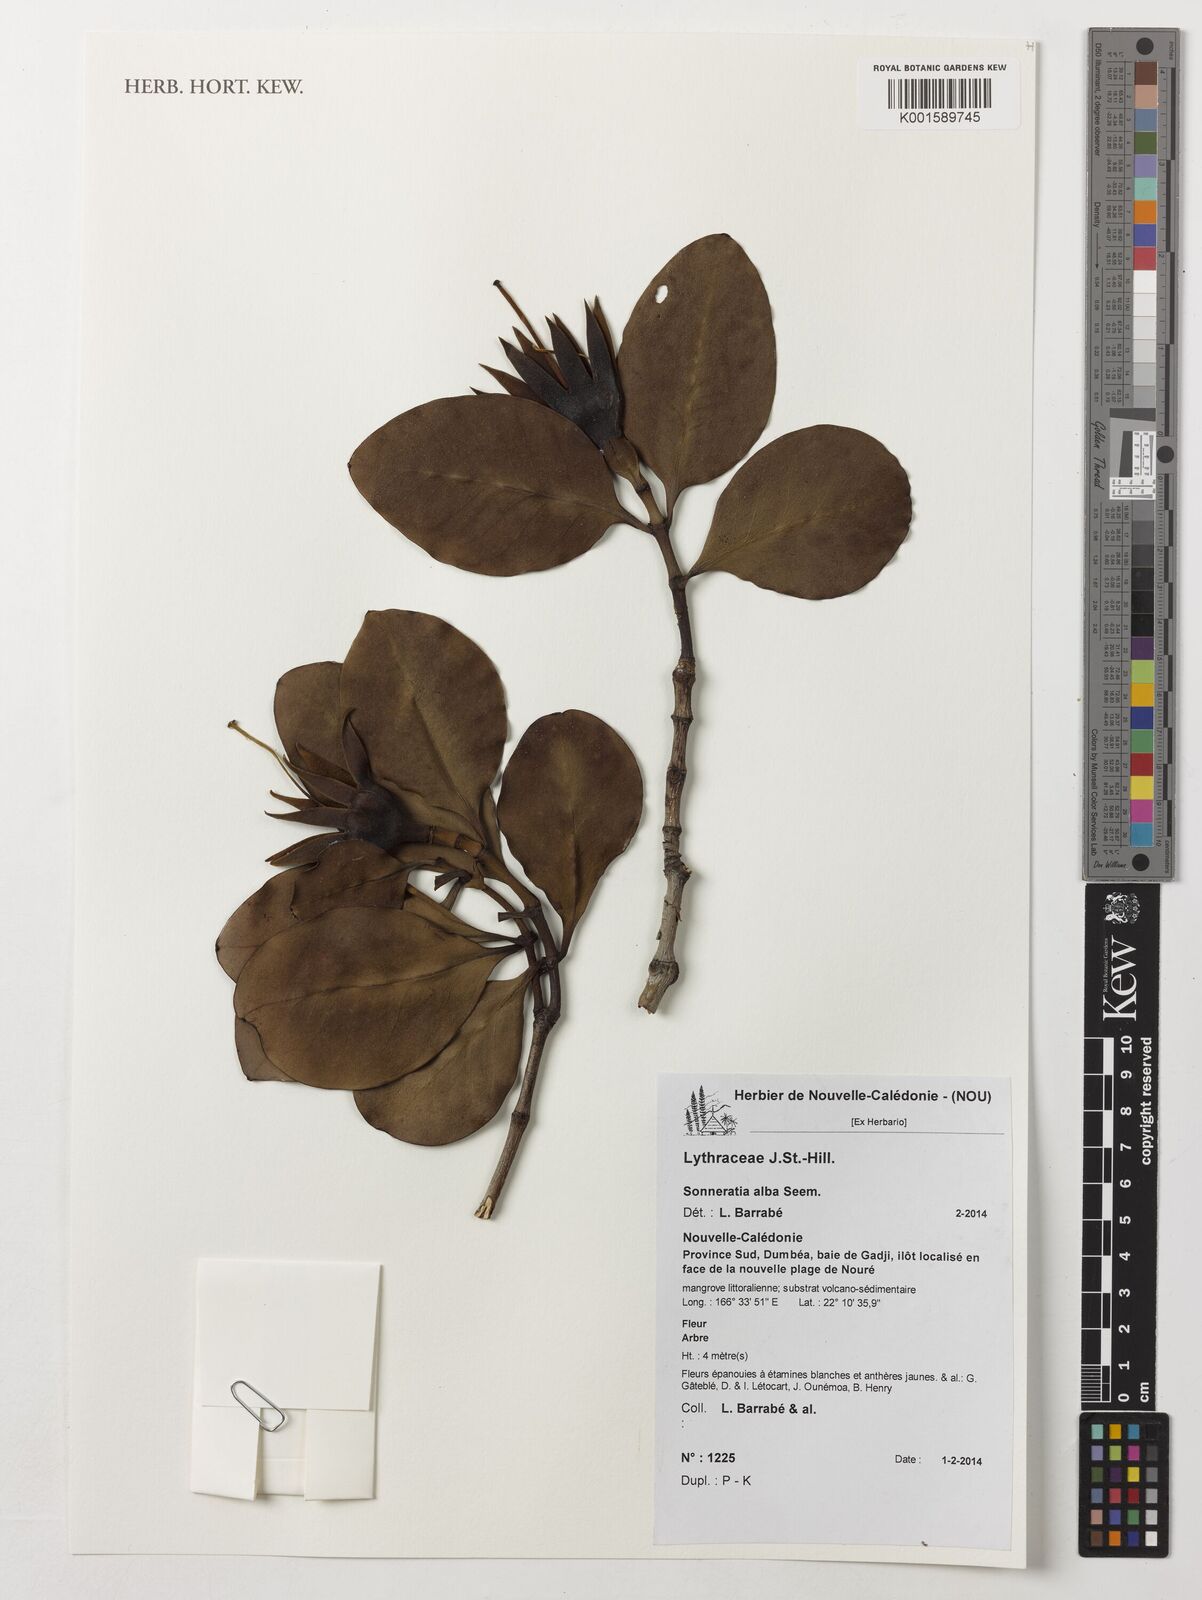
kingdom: Plantae
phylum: Tracheophyta
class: Magnoliopsida
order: Myrtales
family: Lythraceae
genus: Sonneratia
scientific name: Sonneratia alba
